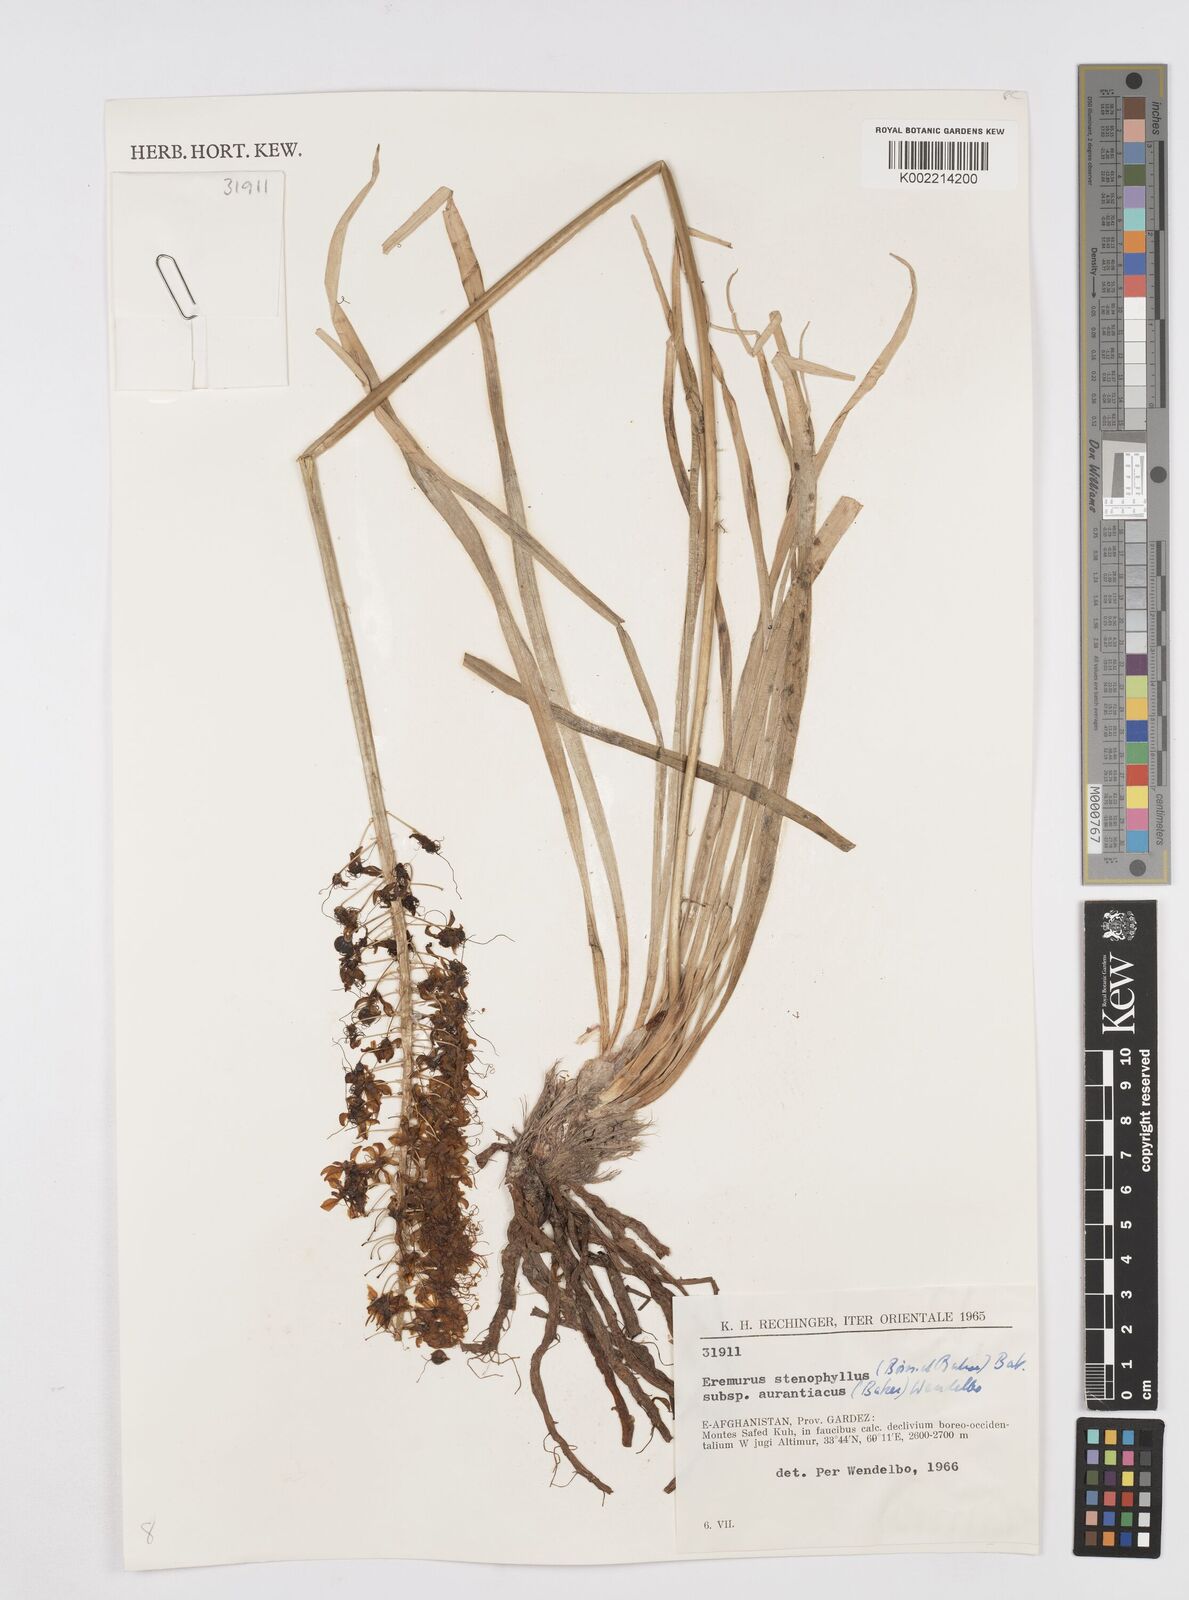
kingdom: Plantae
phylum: Tracheophyta
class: Liliopsida
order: Asparagales
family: Asphodelaceae
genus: Eremurus
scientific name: Eremurus stenophyllus
